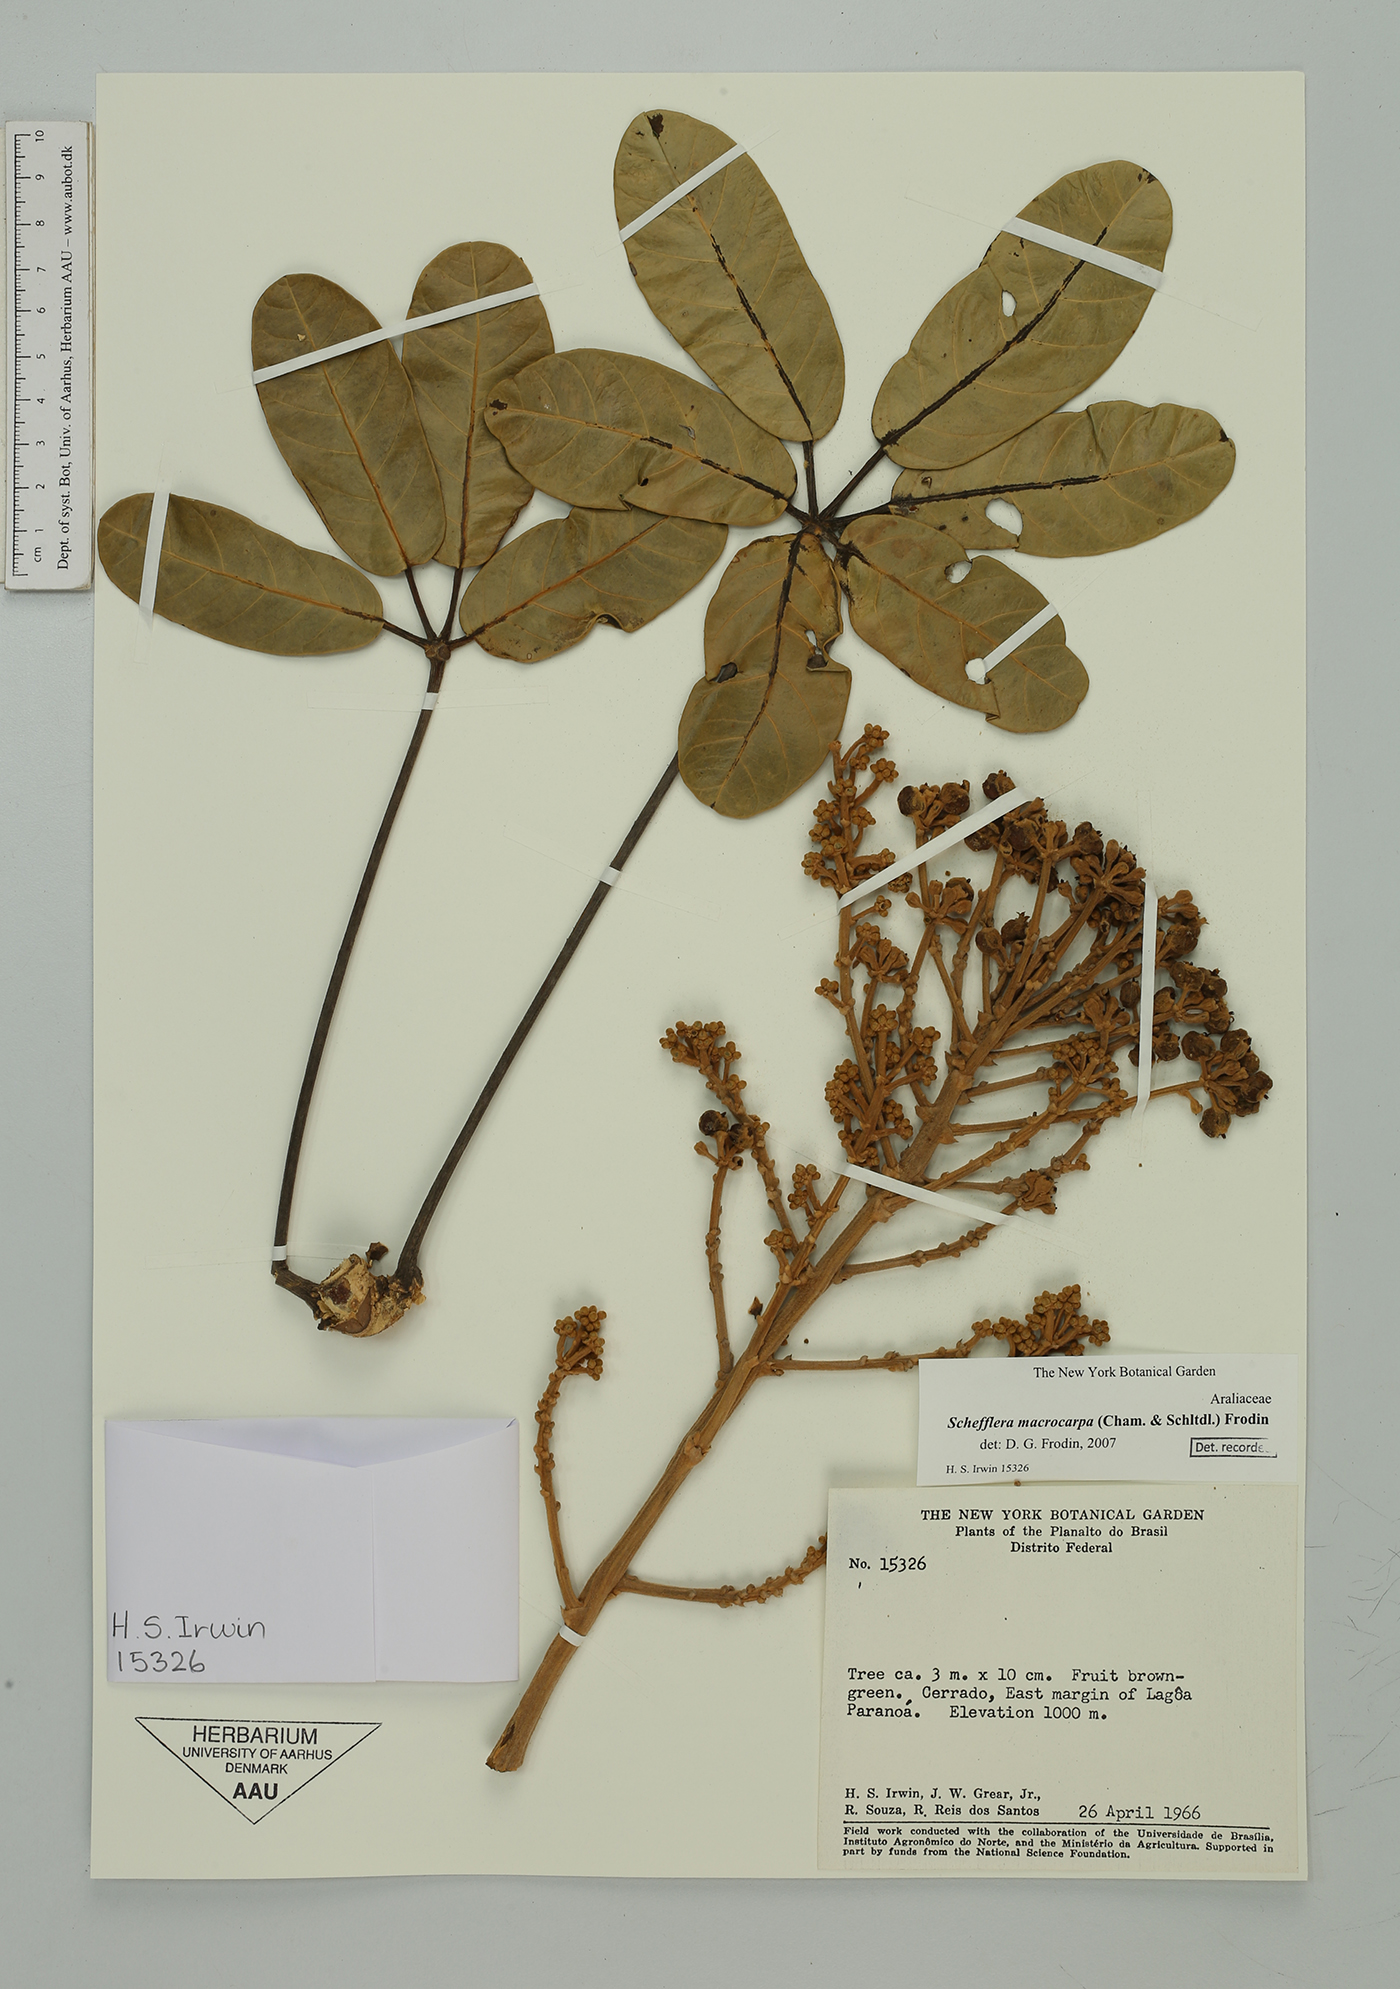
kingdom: Plantae
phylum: Tracheophyta
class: Magnoliopsida
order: Apiales
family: Araliaceae
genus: Didymopanax
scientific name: Didymopanax macrocarpus
